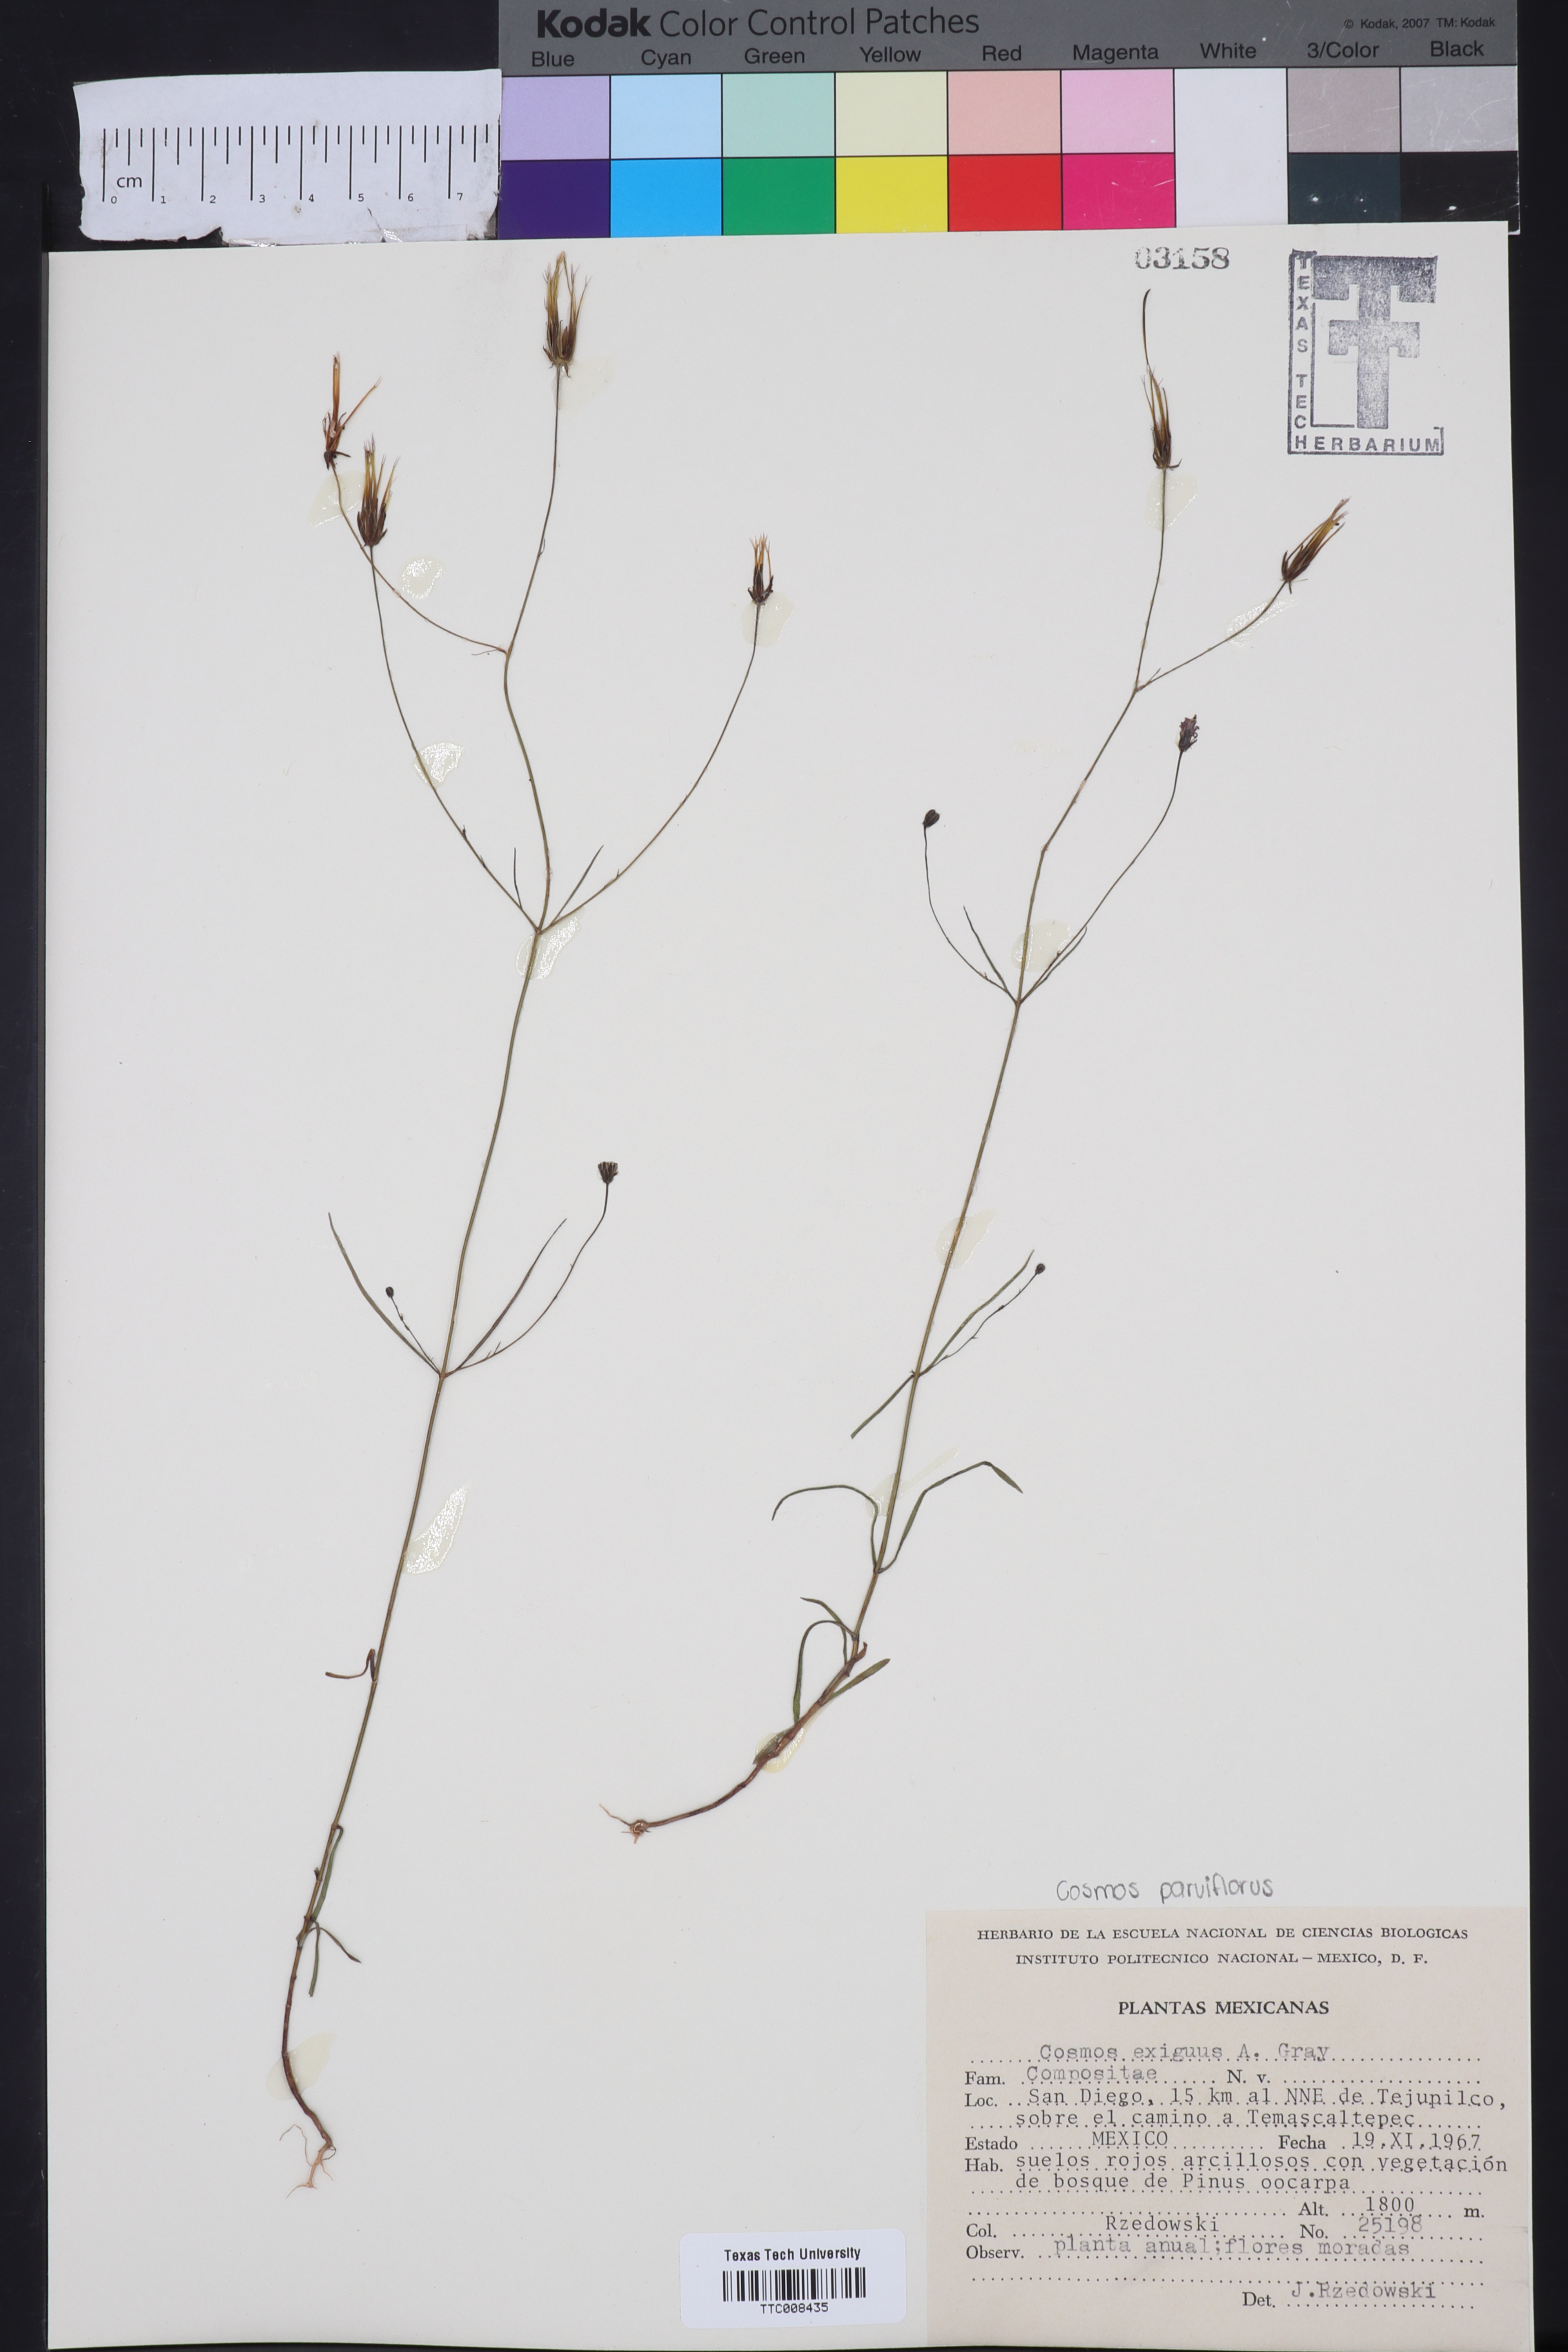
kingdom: Plantae
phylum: Tracheophyta
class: Magnoliopsida
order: Asterales
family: Asteraceae
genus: Bidens
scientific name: Bidens rostrata
